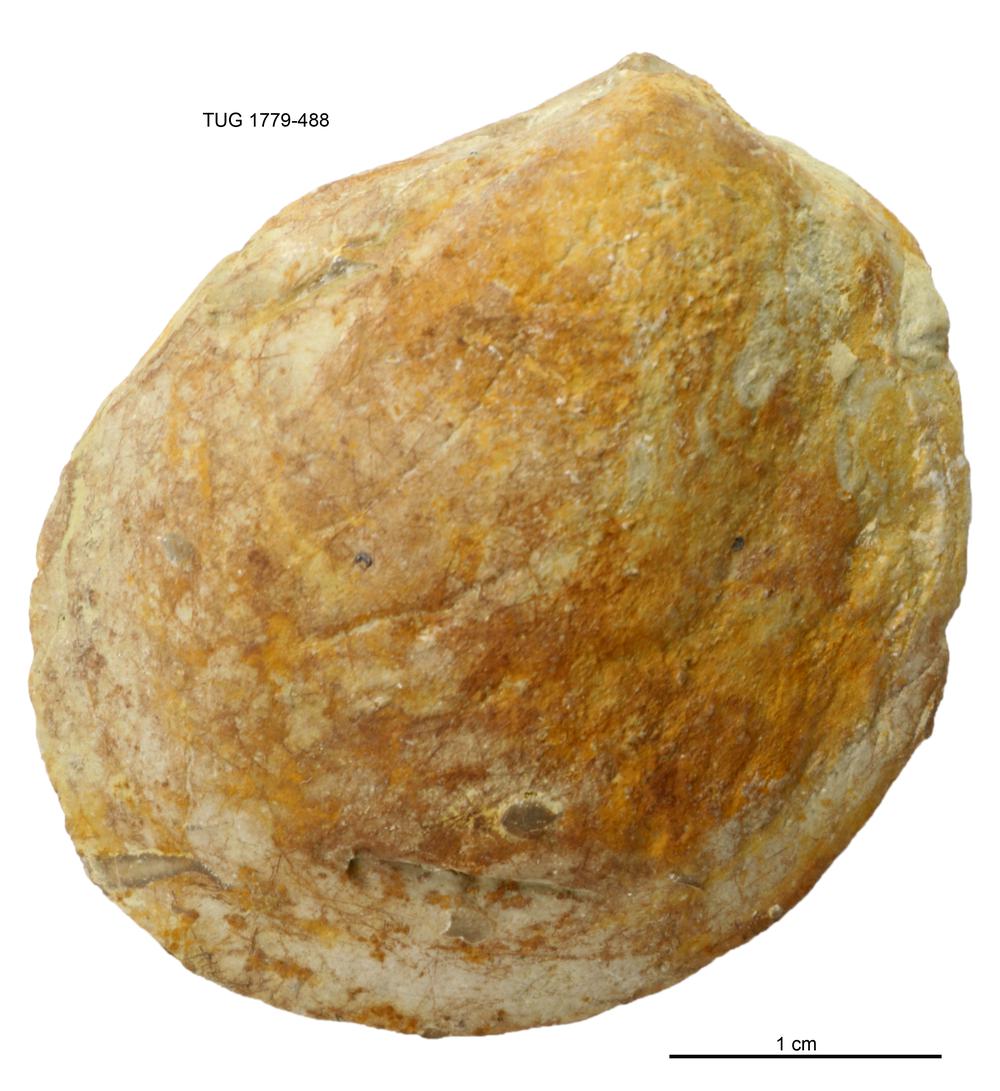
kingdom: Animalia
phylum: Mollusca
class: Bivalvia
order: Modiomorphida
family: Modiomorphidae
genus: Modiolopsis
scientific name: Modiolopsis
